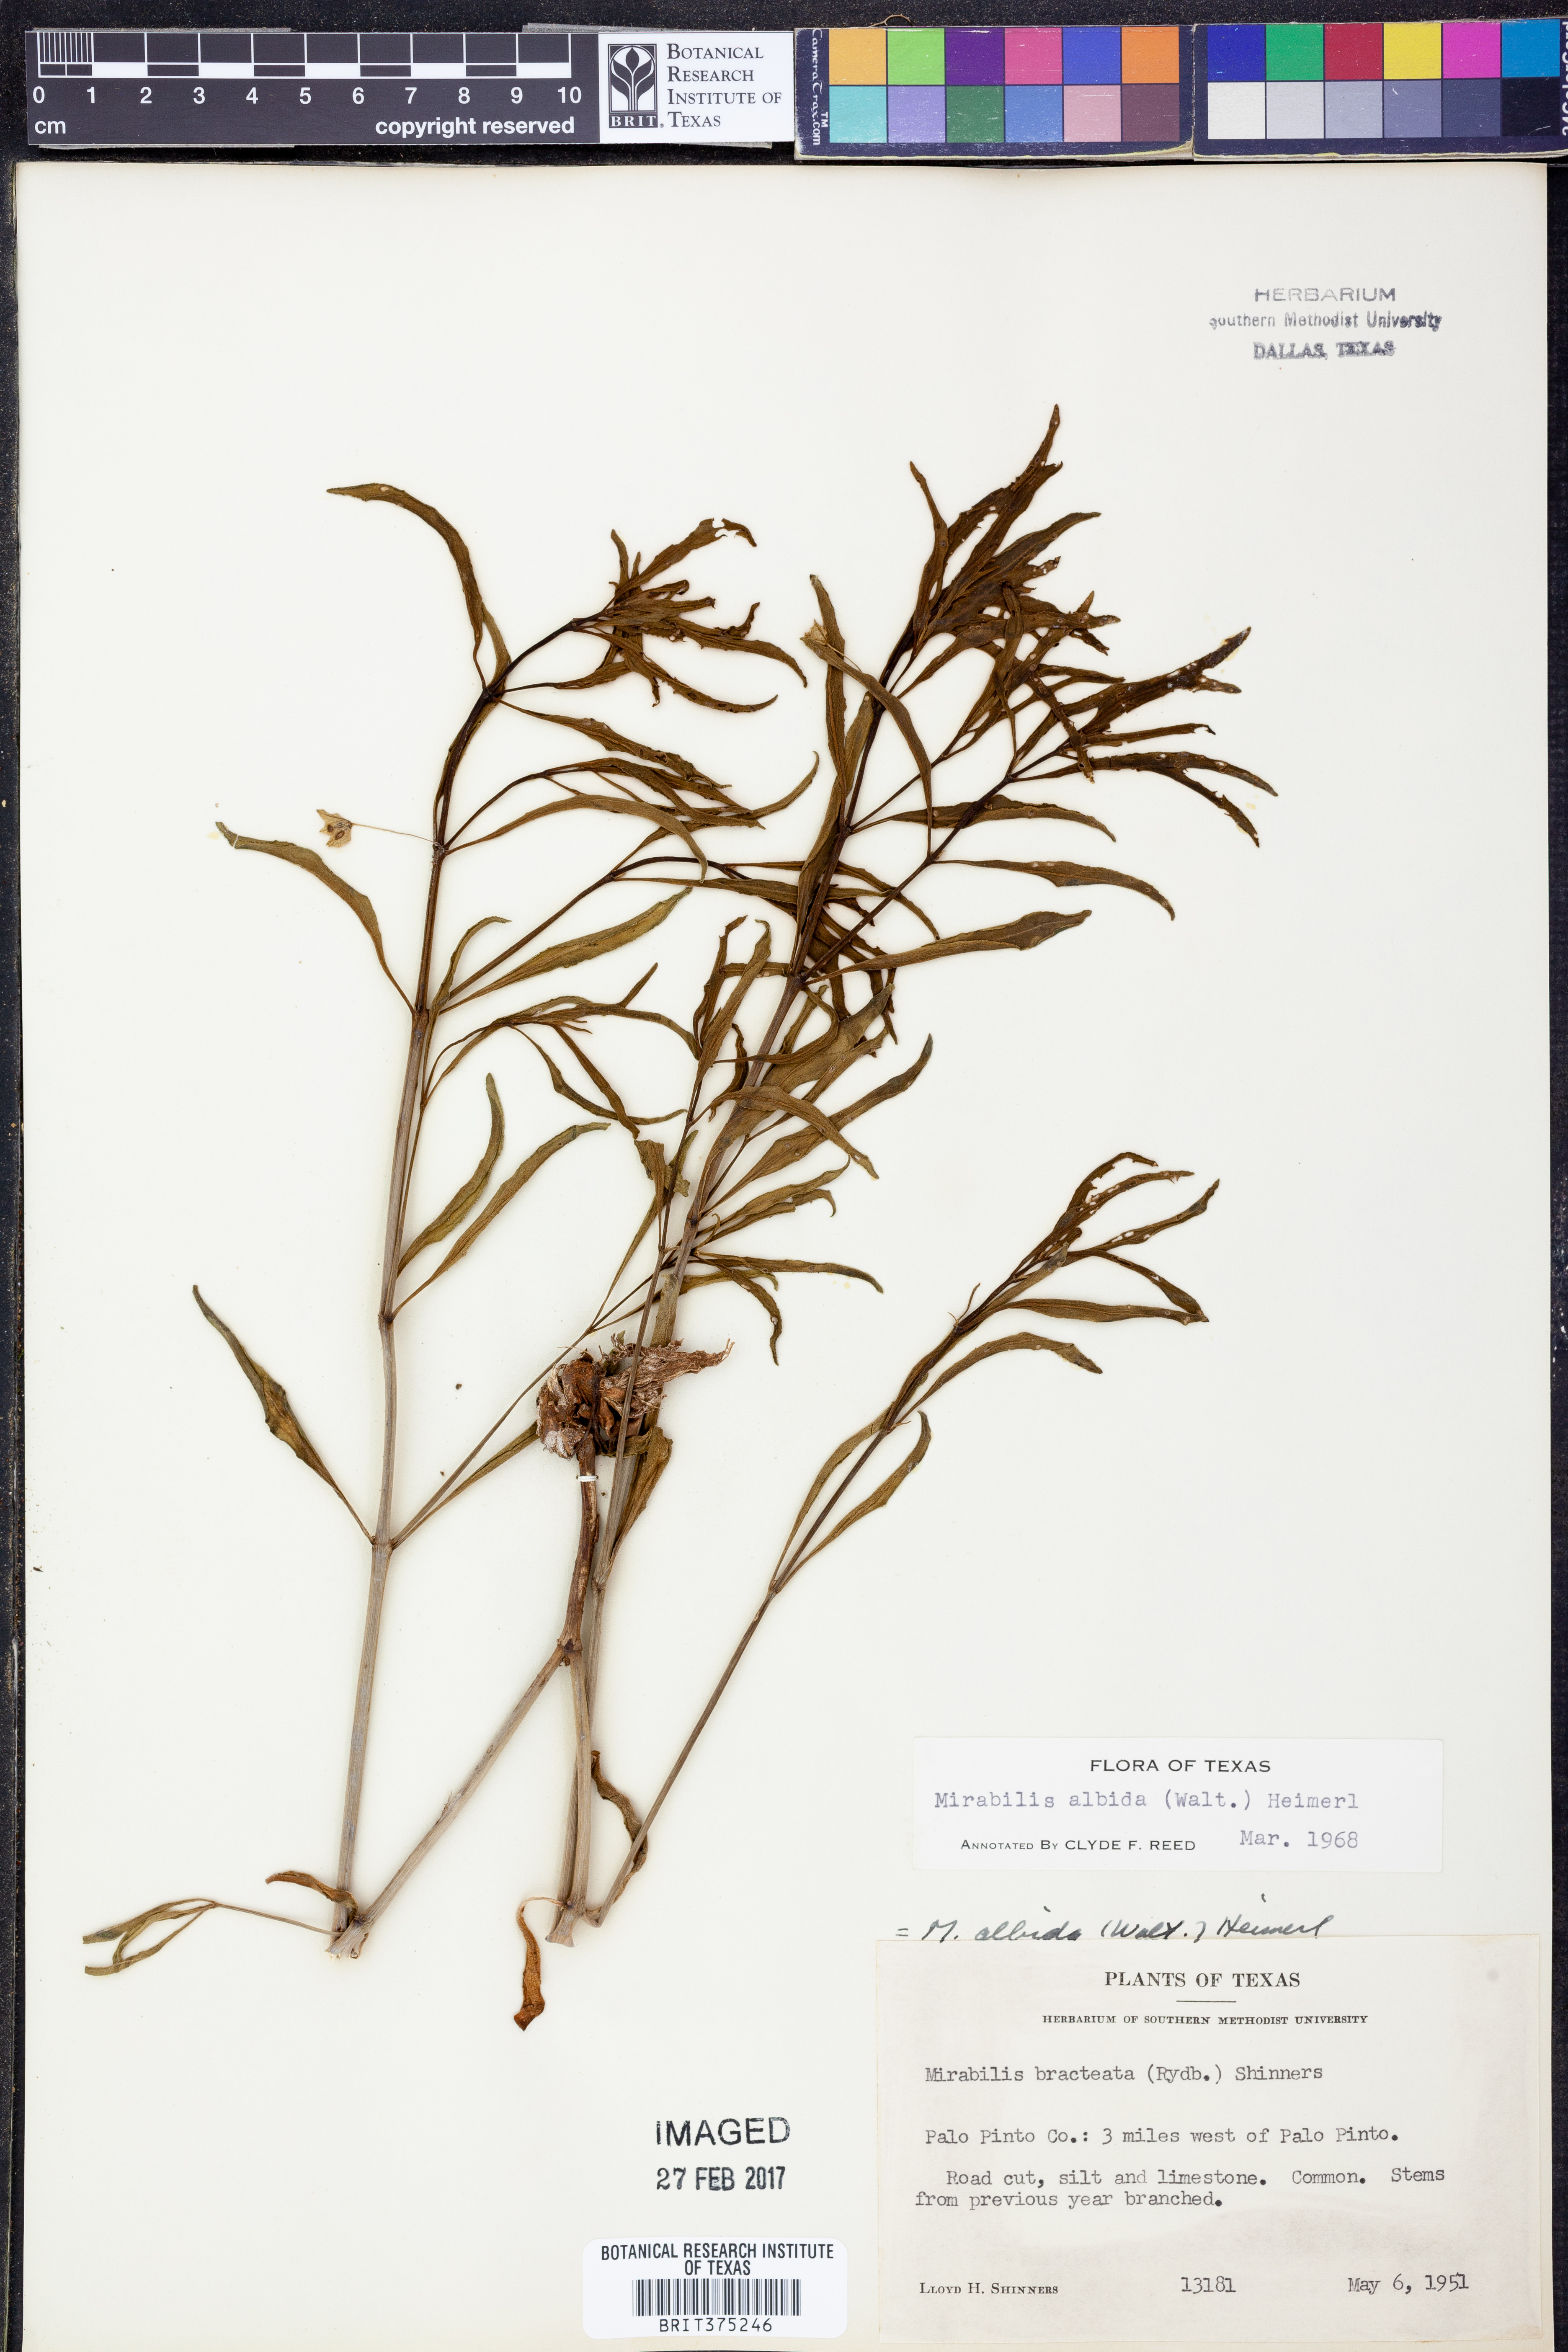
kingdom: Plantae
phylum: Tracheophyta
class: Magnoliopsida
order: Caryophyllales
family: Nyctaginaceae
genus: Mirabilis
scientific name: Mirabilis albida
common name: Hairy four-o'clock
